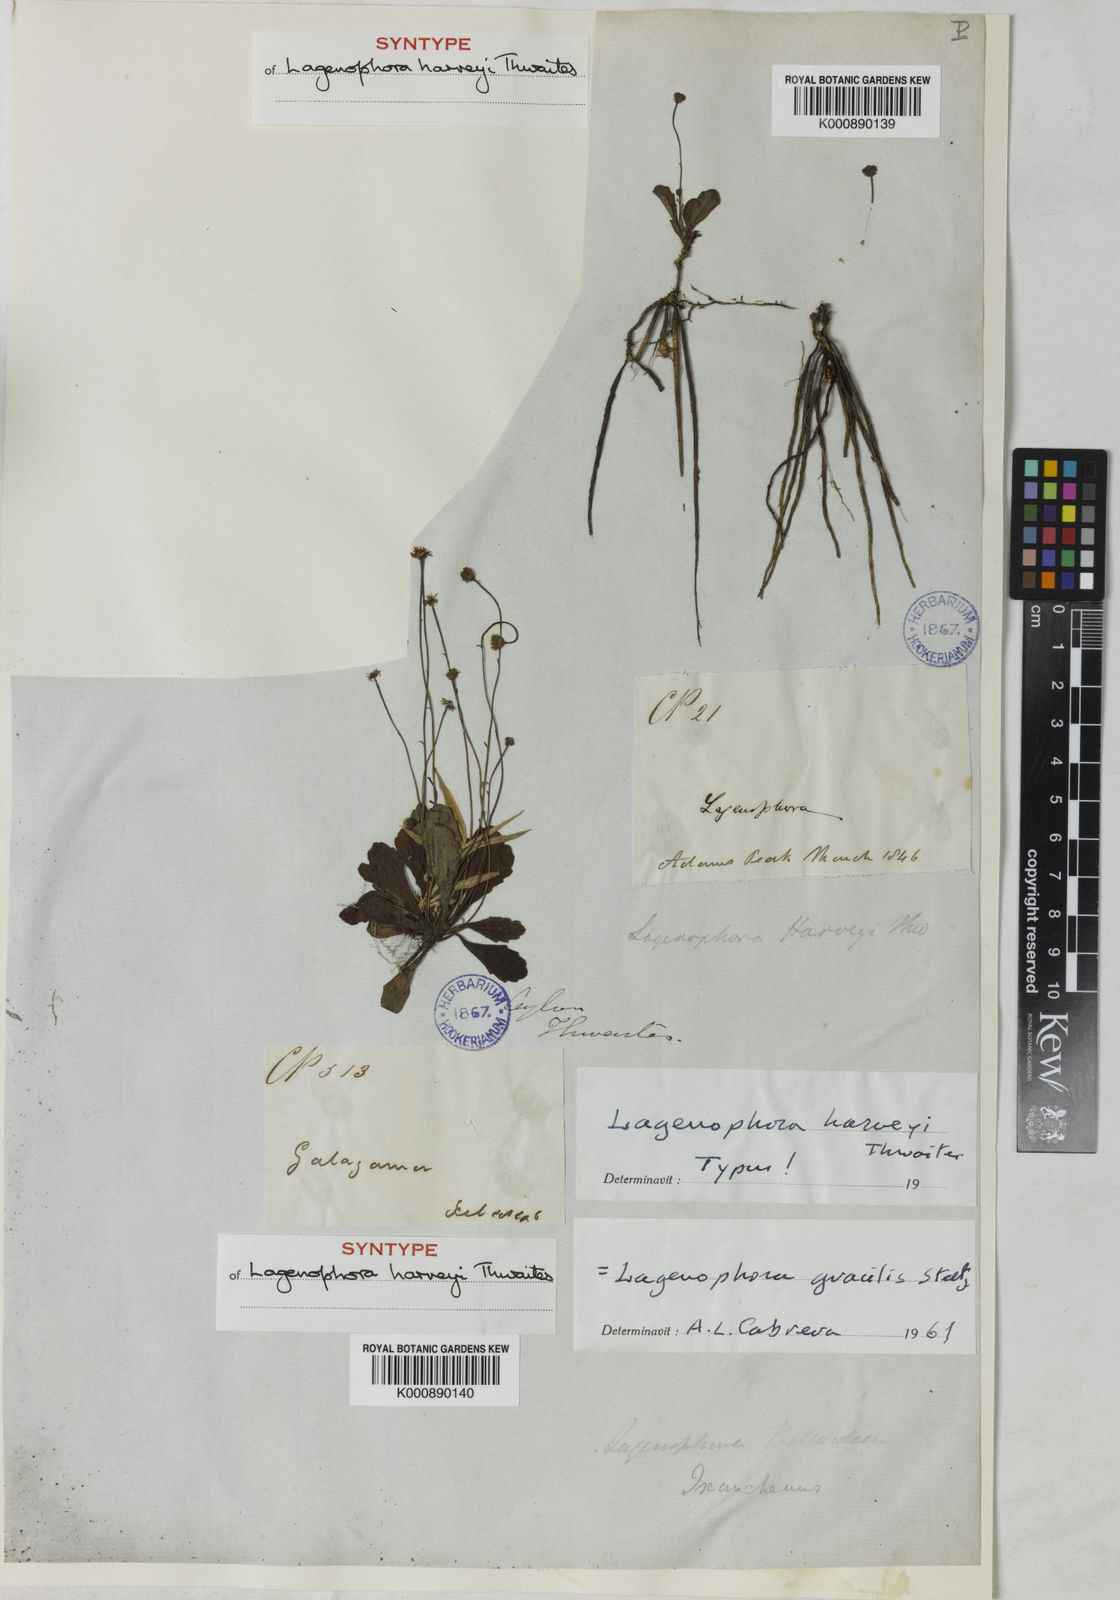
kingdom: Plantae
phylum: Tracheophyta
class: Magnoliopsida
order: Asterales
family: Asteraceae
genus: Lagenophora
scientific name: Lagenophora gracilis
